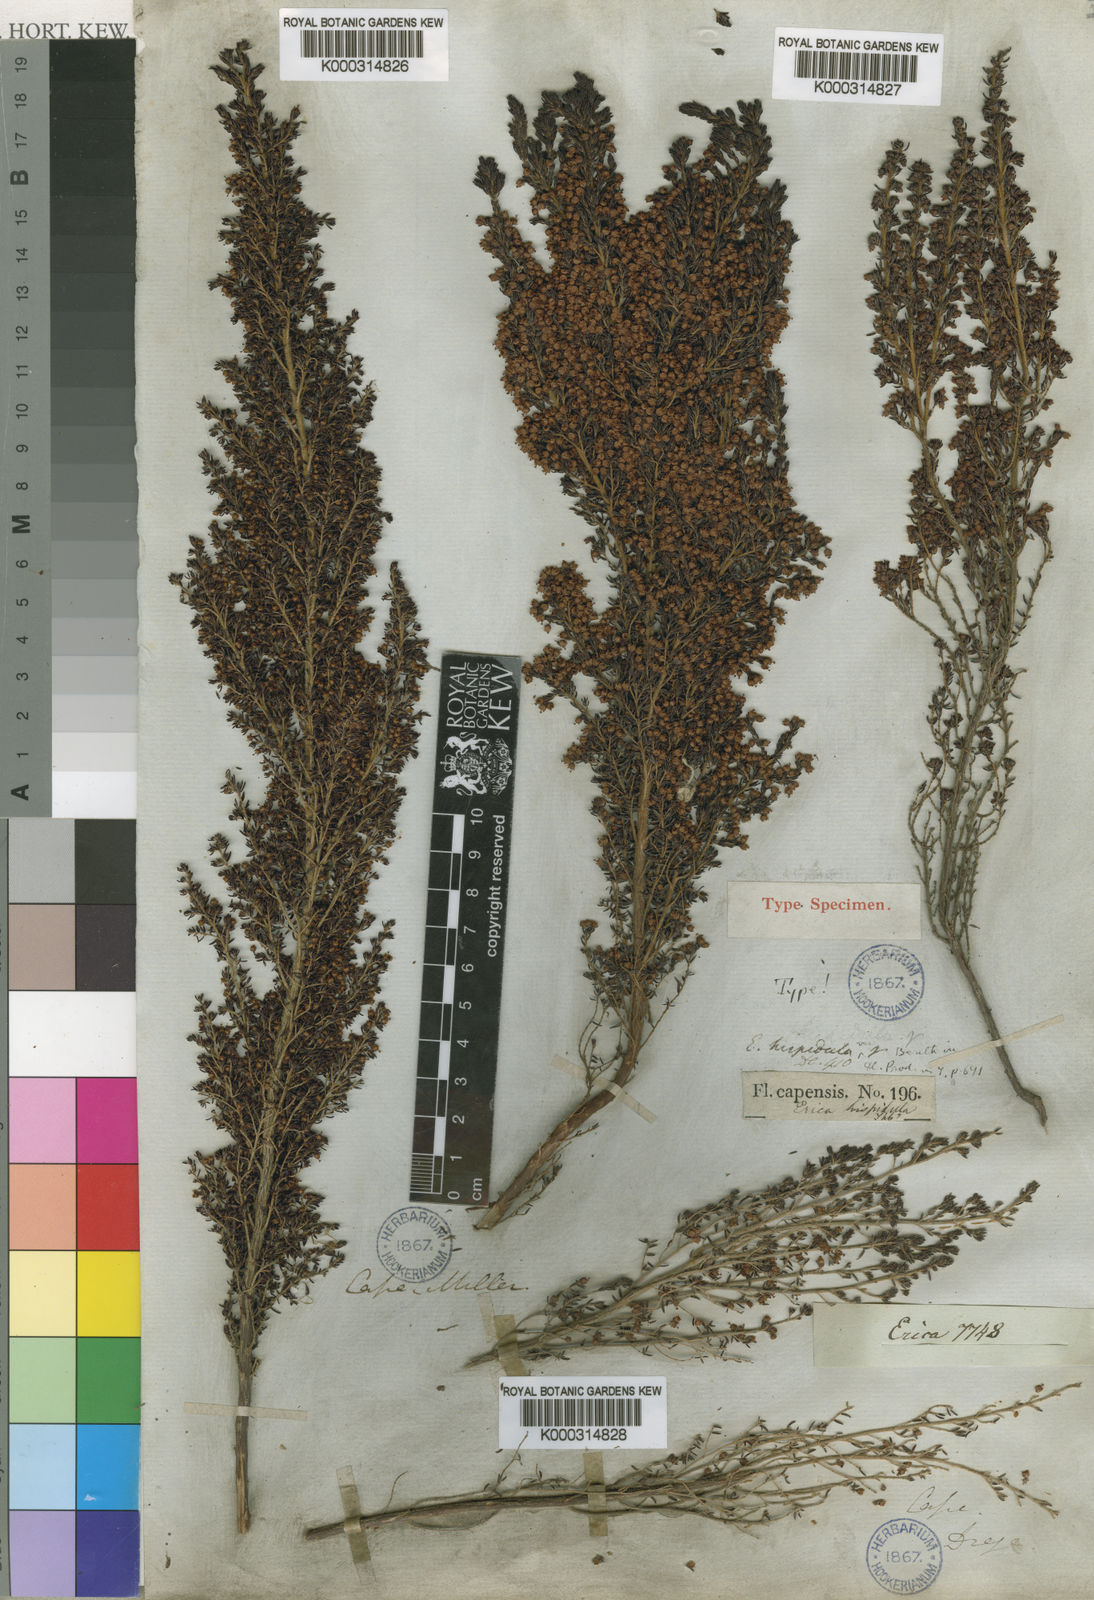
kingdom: Plantae
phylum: Tracheophyta
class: Magnoliopsida
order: Ericales
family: Ericaceae
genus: Erica
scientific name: Erica hispidula
